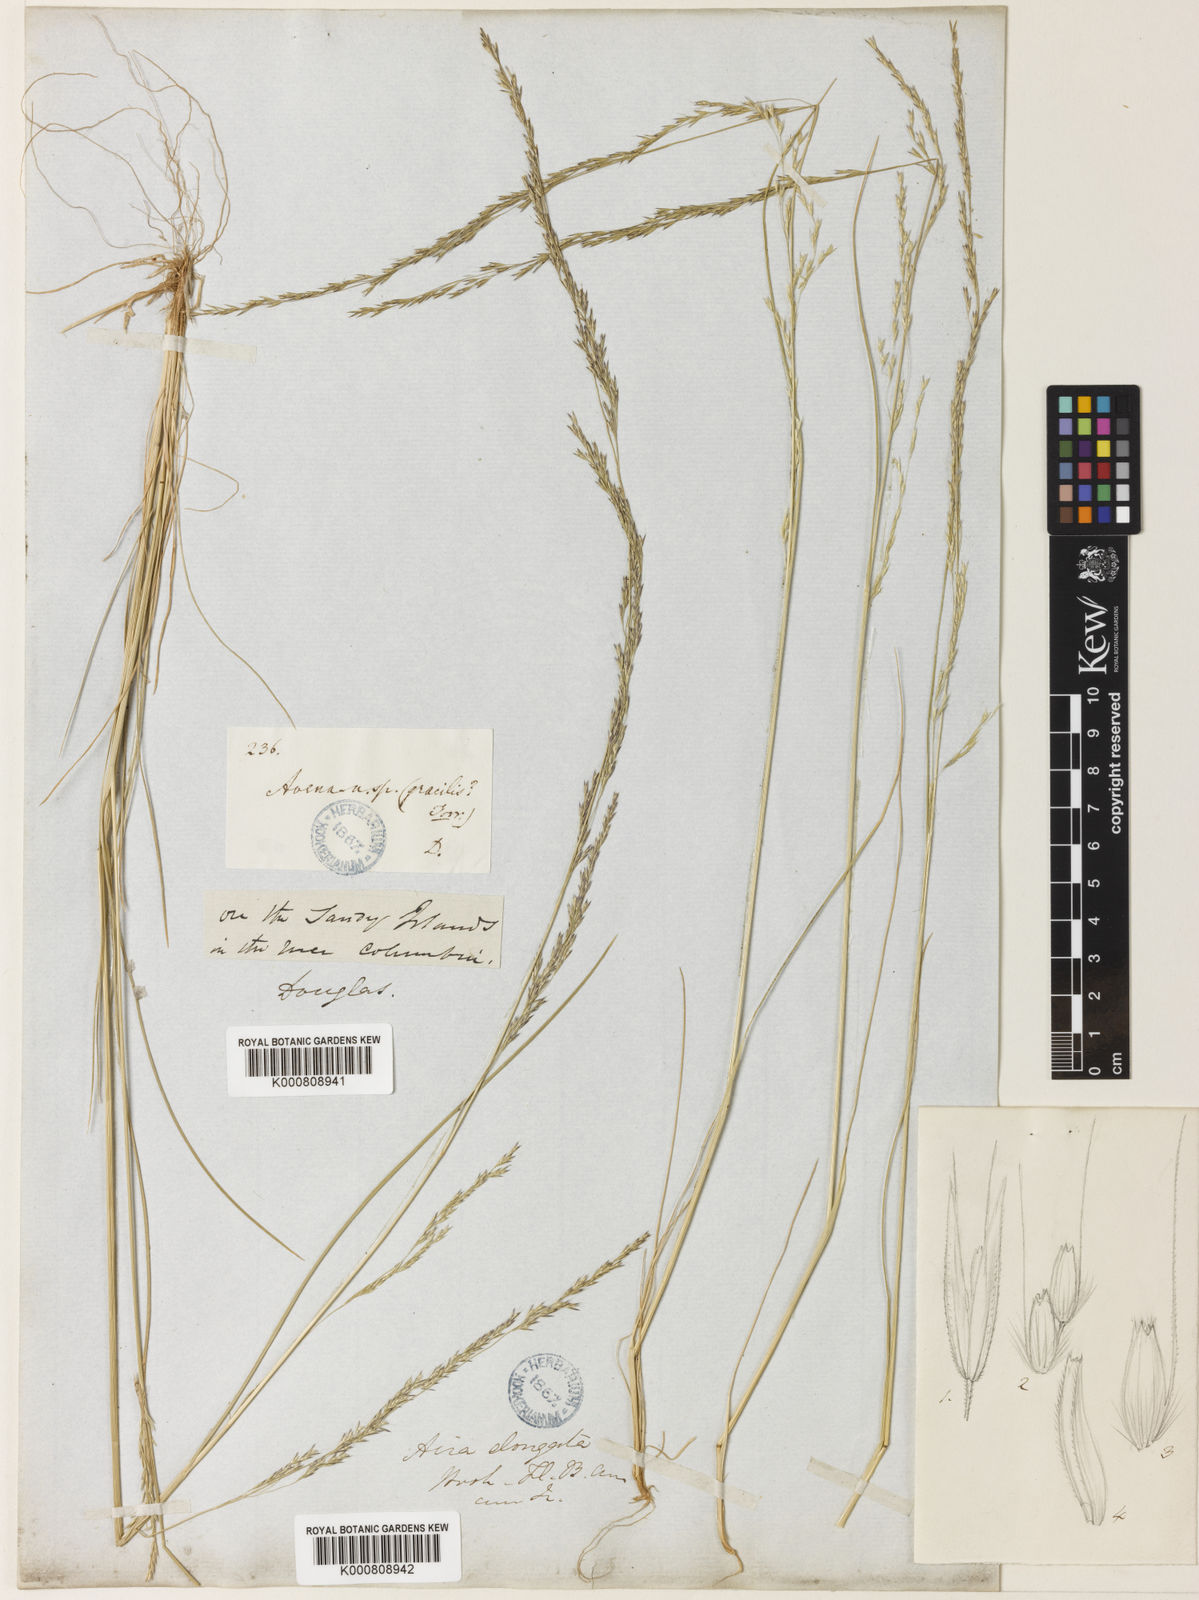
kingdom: Plantae
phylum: Tracheophyta
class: Liliopsida
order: Poales
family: Poaceae
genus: Deschampsia
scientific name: Deschampsia elongata
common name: Slender hairgrass
